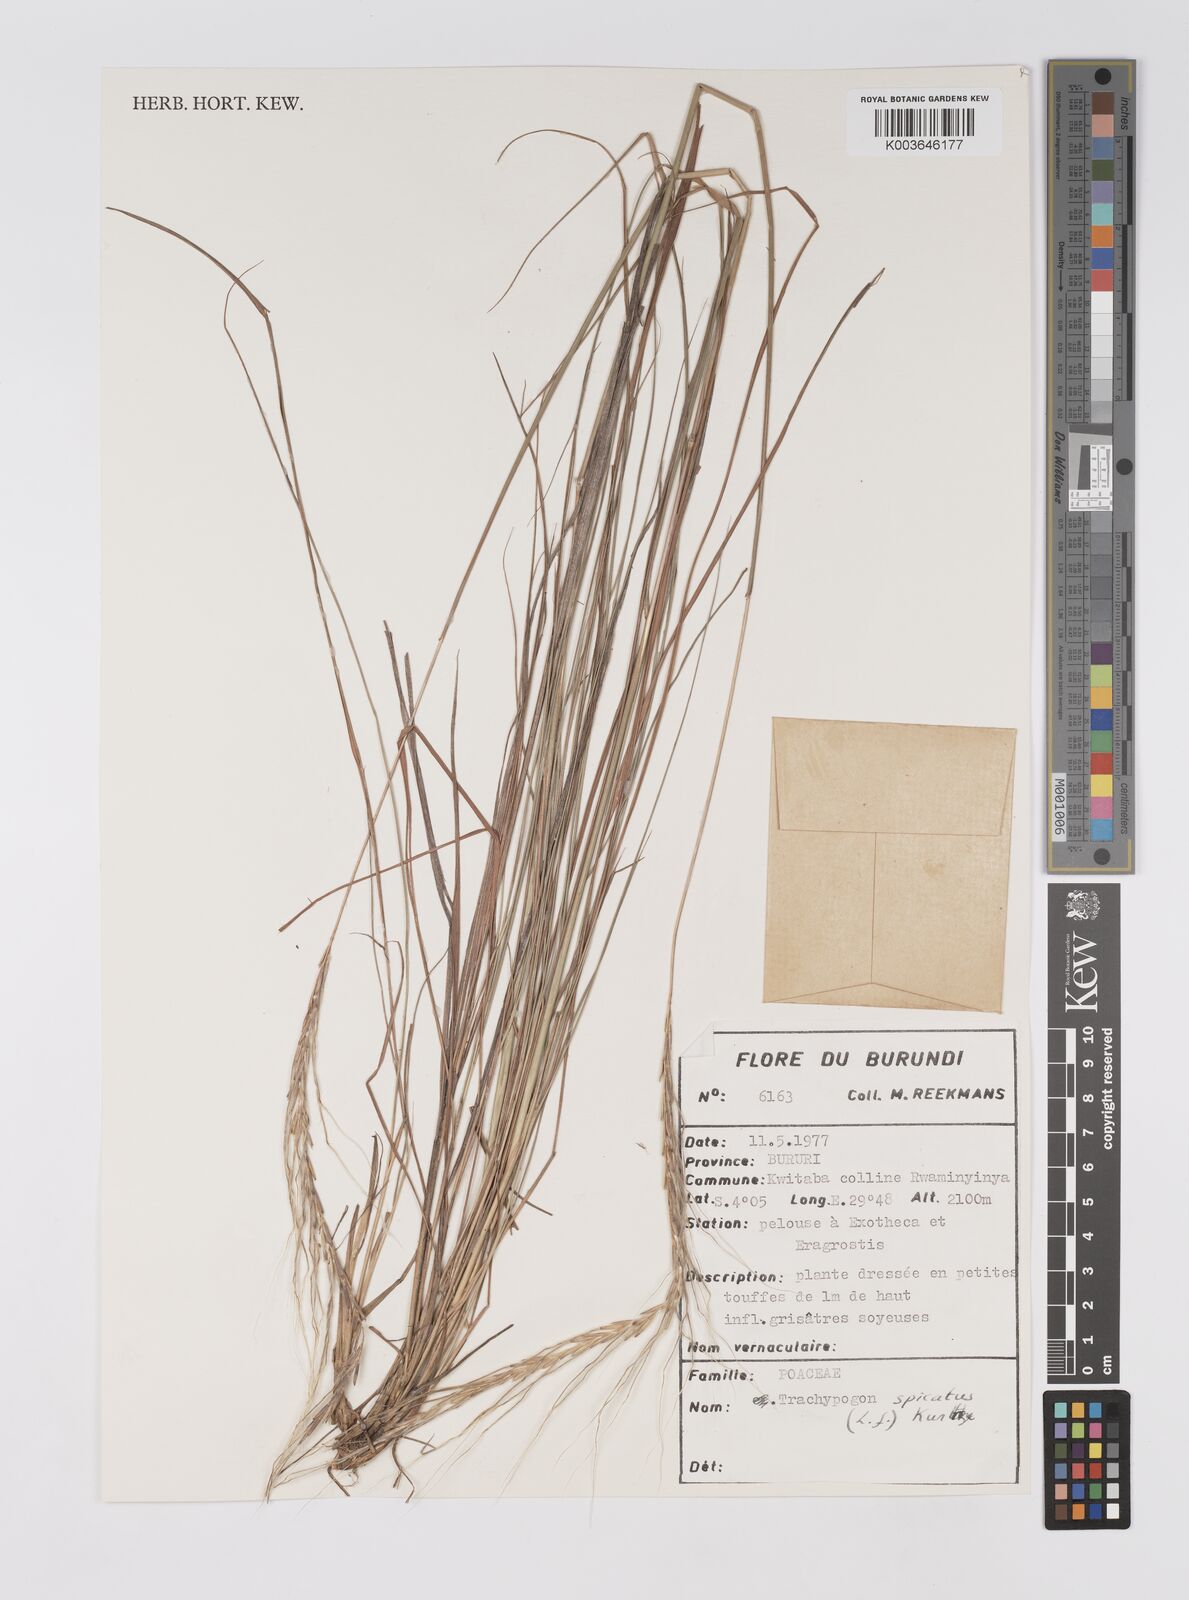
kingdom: Plantae
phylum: Tracheophyta
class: Liliopsida
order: Poales
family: Poaceae
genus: Trachypogon
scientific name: Trachypogon spicatus
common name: Crinkle-awn
